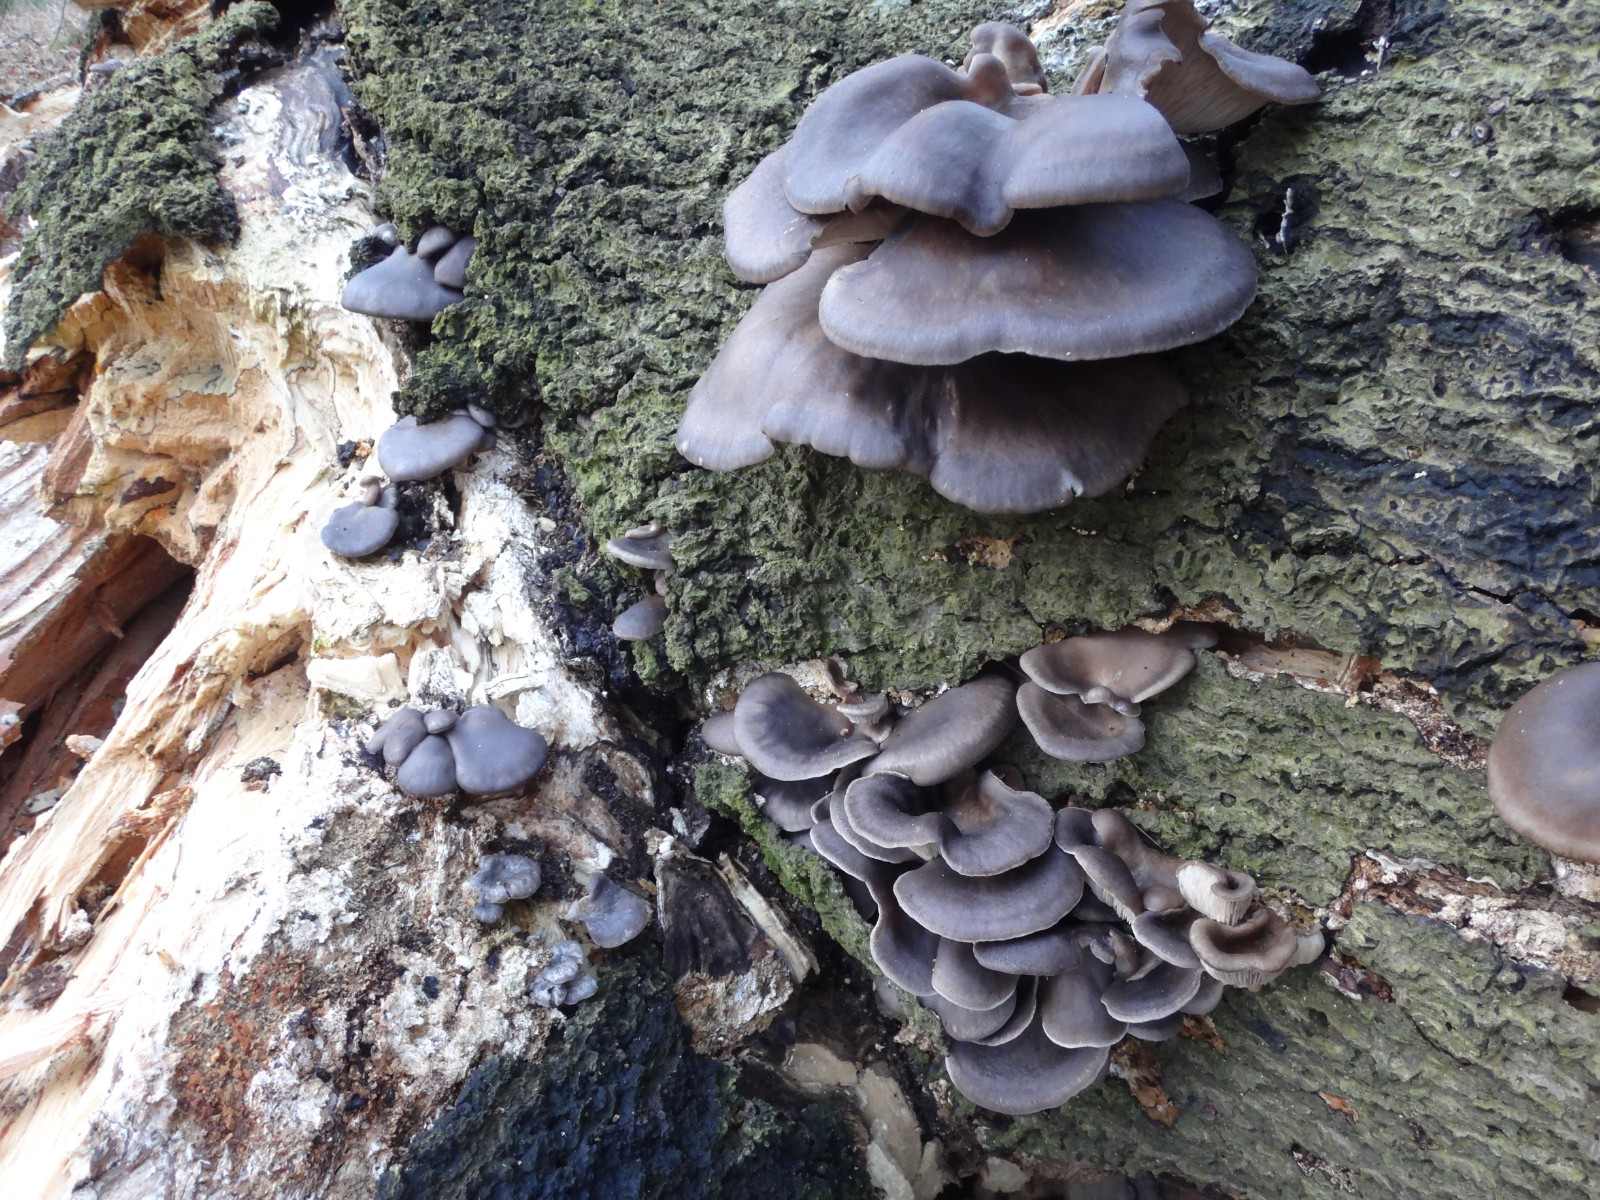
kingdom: Fungi
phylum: Basidiomycota
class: Agaricomycetes
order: Agaricales
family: Pleurotaceae
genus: Pleurotus
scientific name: Pleurotus ostreatus
